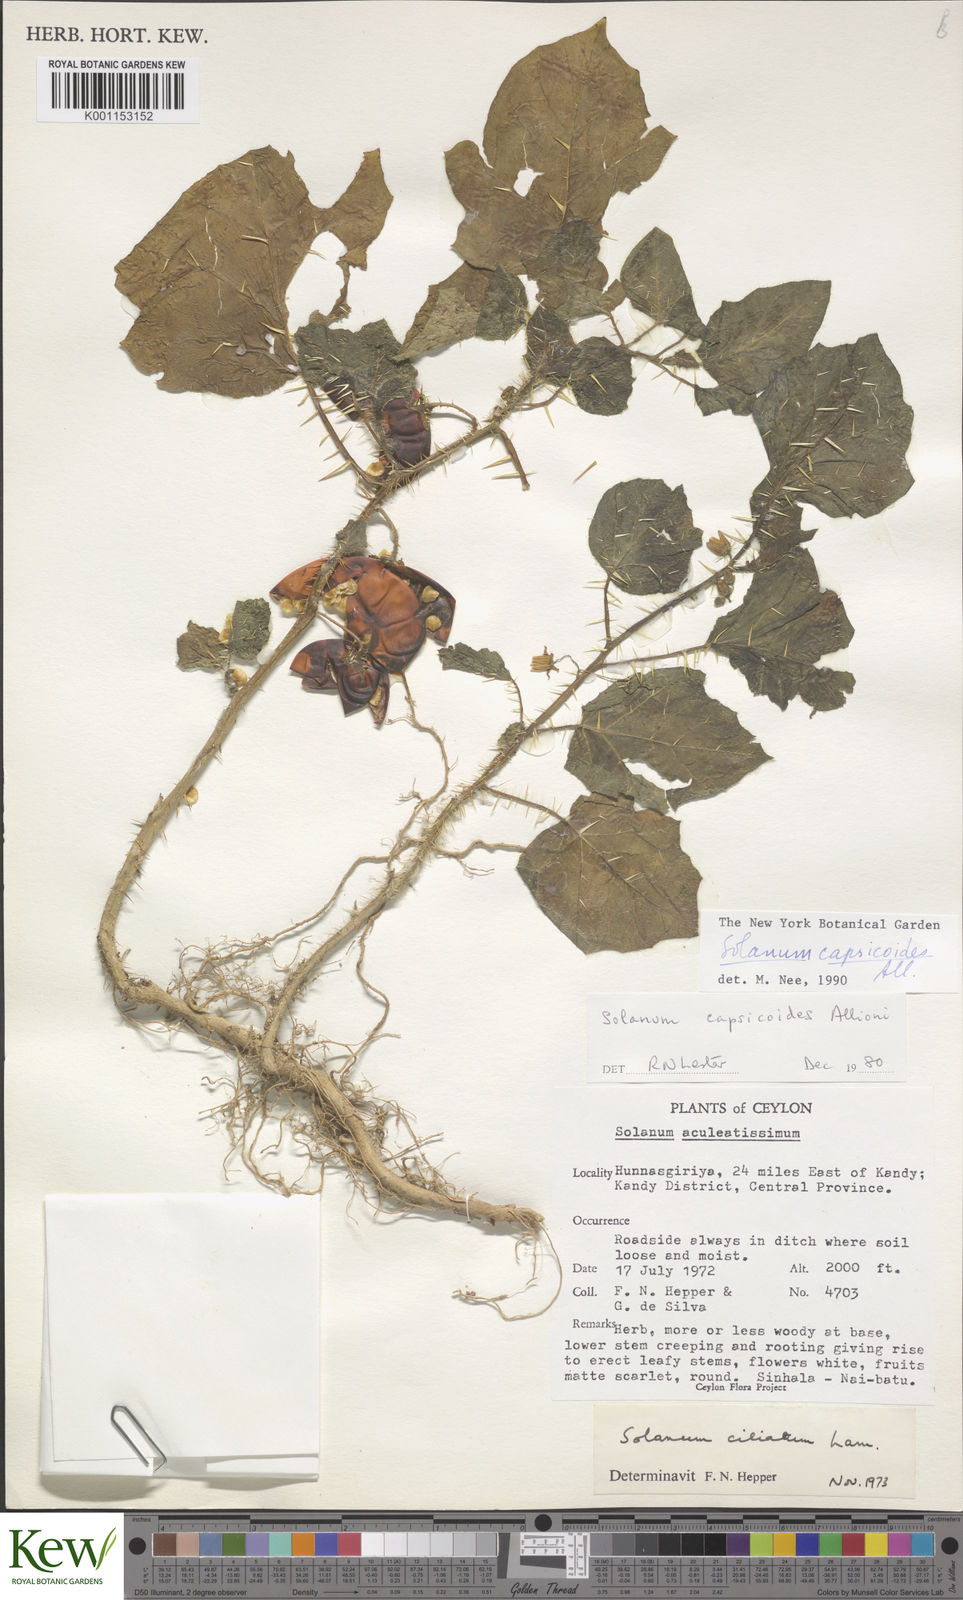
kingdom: Plantae
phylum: Tracheophyta
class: Magnoliopsida
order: Solanales
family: Solanaceae
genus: Solanum
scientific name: Solanum capsicoides
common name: Cockroach berry
